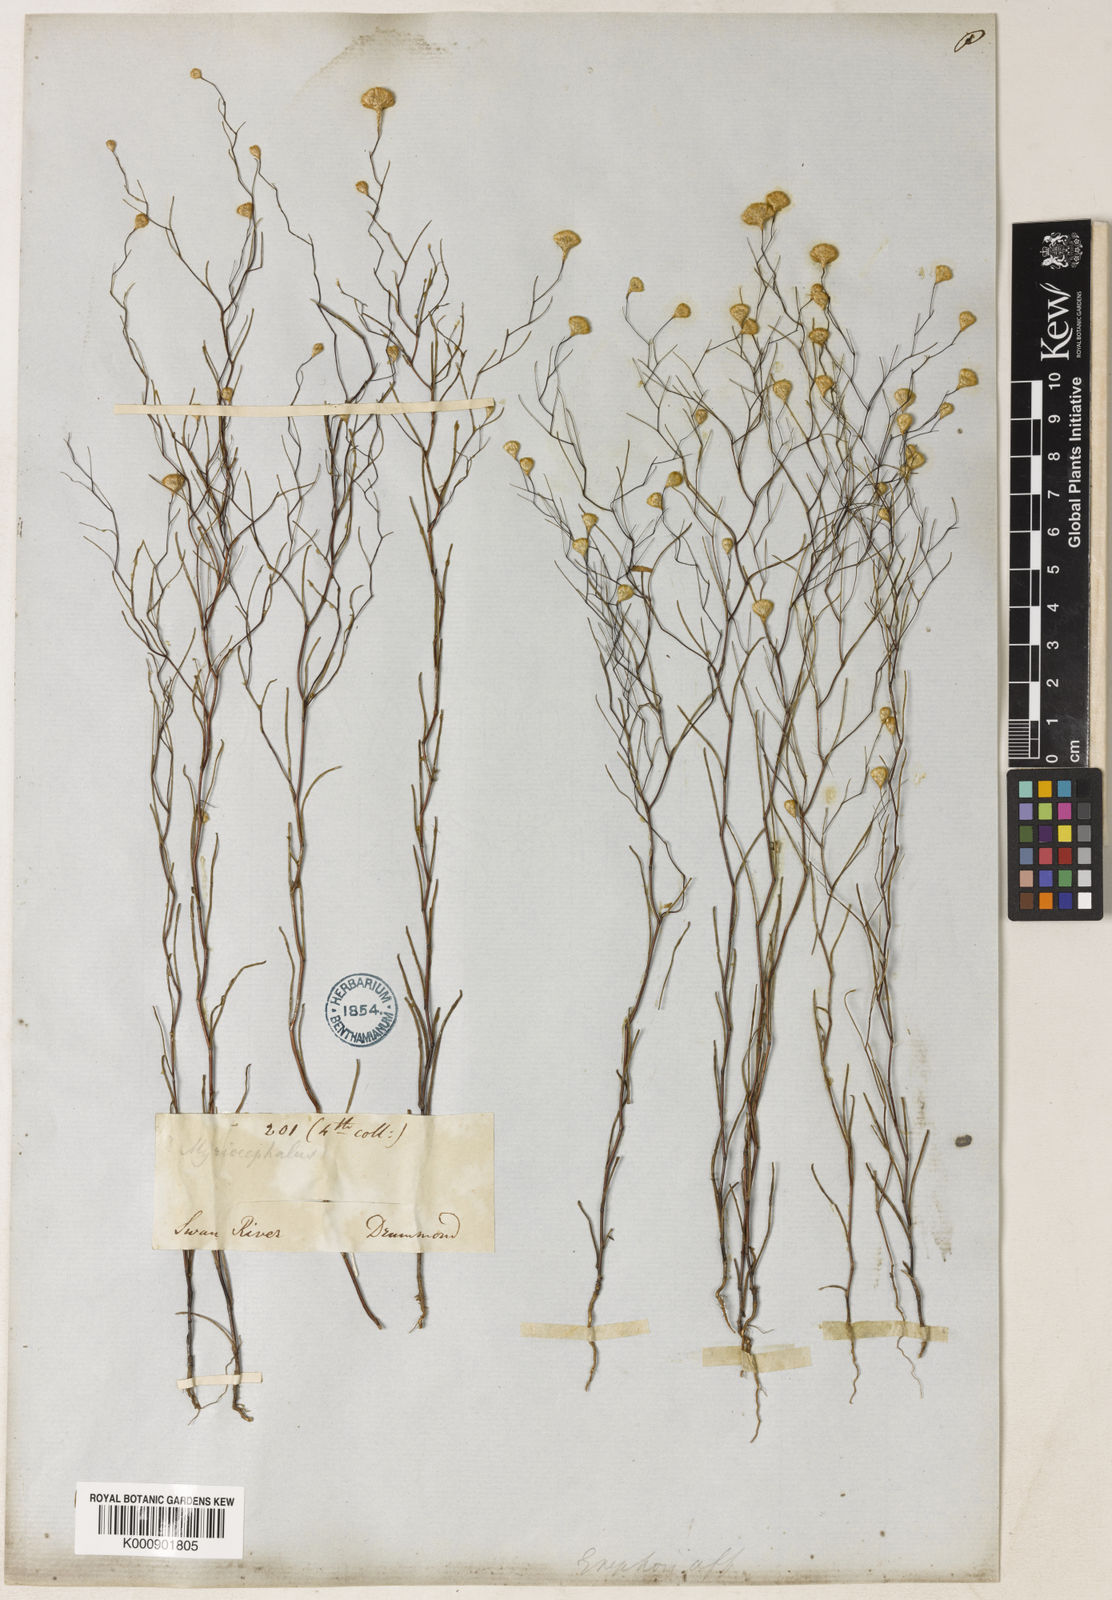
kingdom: Plantae
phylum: Tracheophyta
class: Magnoliopsida
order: Asterales
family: Asteraceae
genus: Gnephosis
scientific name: Gnephosis acicularis
